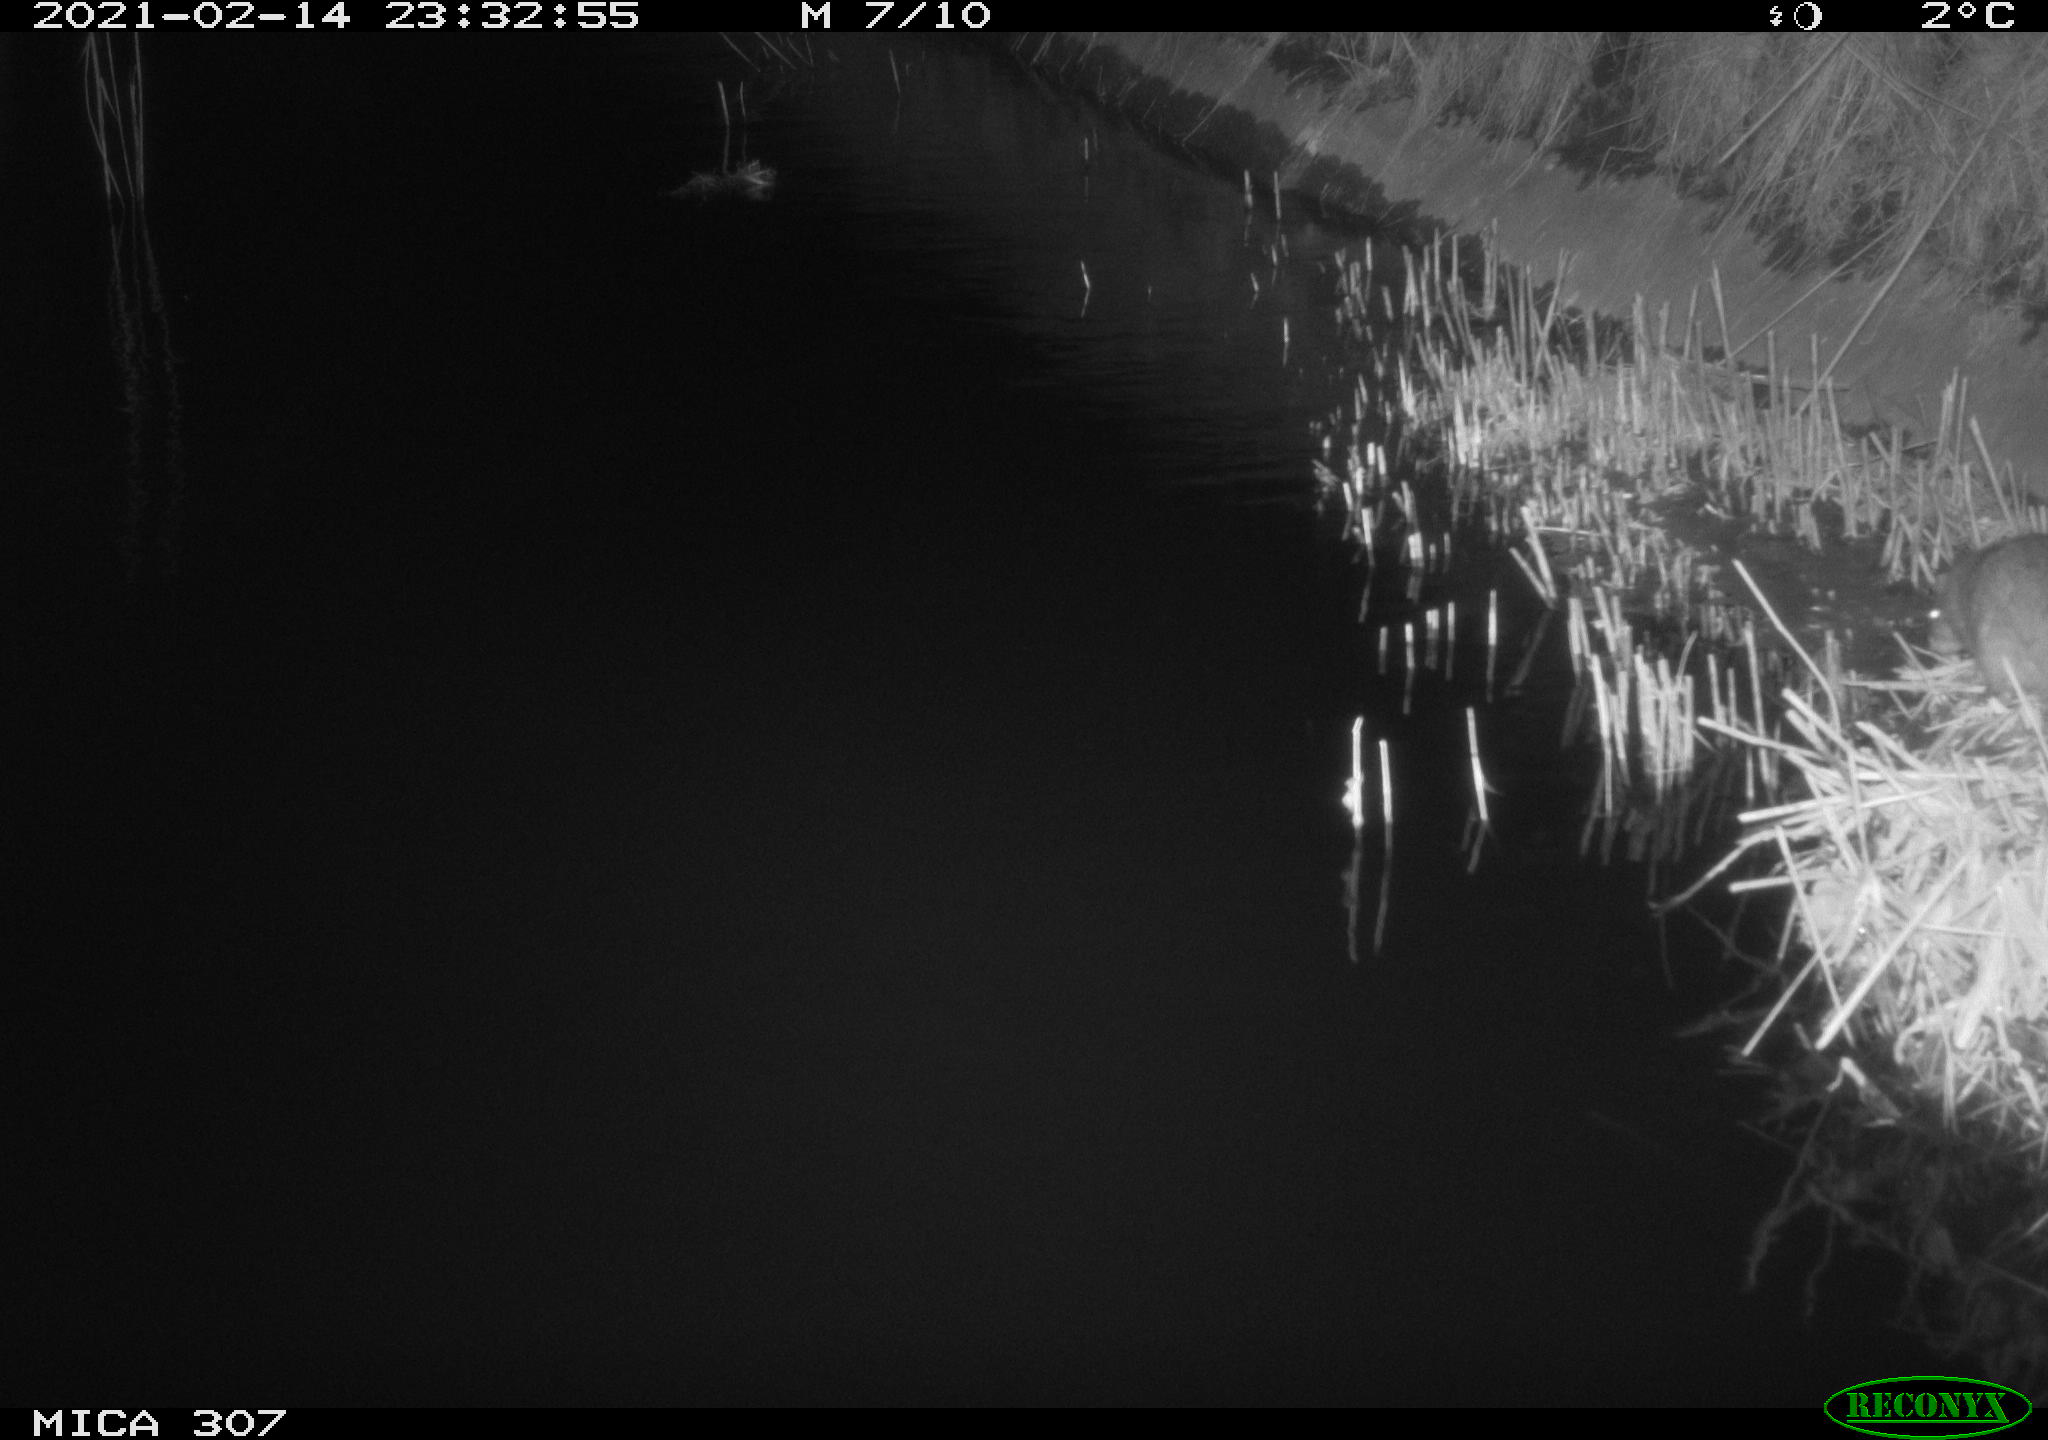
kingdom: Animalia
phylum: Chordata
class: Mammalia
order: Rodentia
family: Muridae
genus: Rattus
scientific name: Rattus norvegicus
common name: Brown rat
